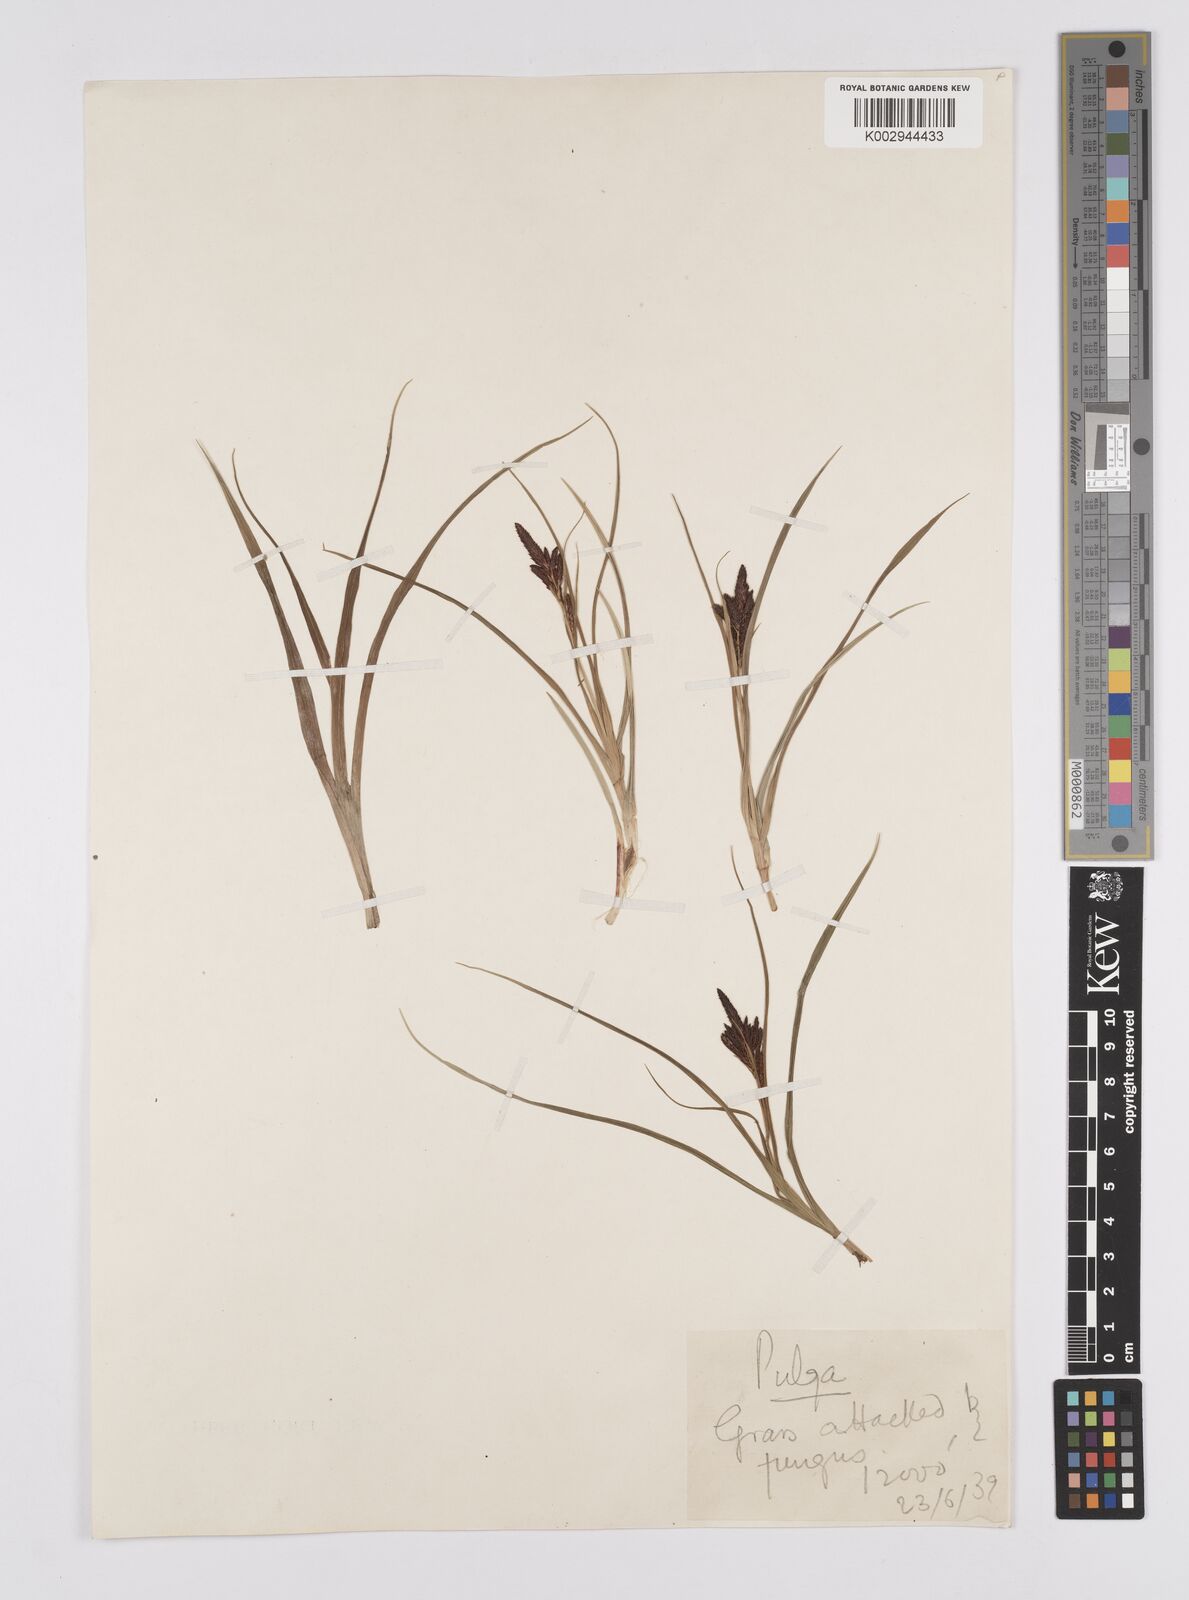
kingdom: Plantae
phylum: Tracheophyta
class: Liliopsida
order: Poales
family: Cyperaceae
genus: Carex
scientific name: Carex obscura
